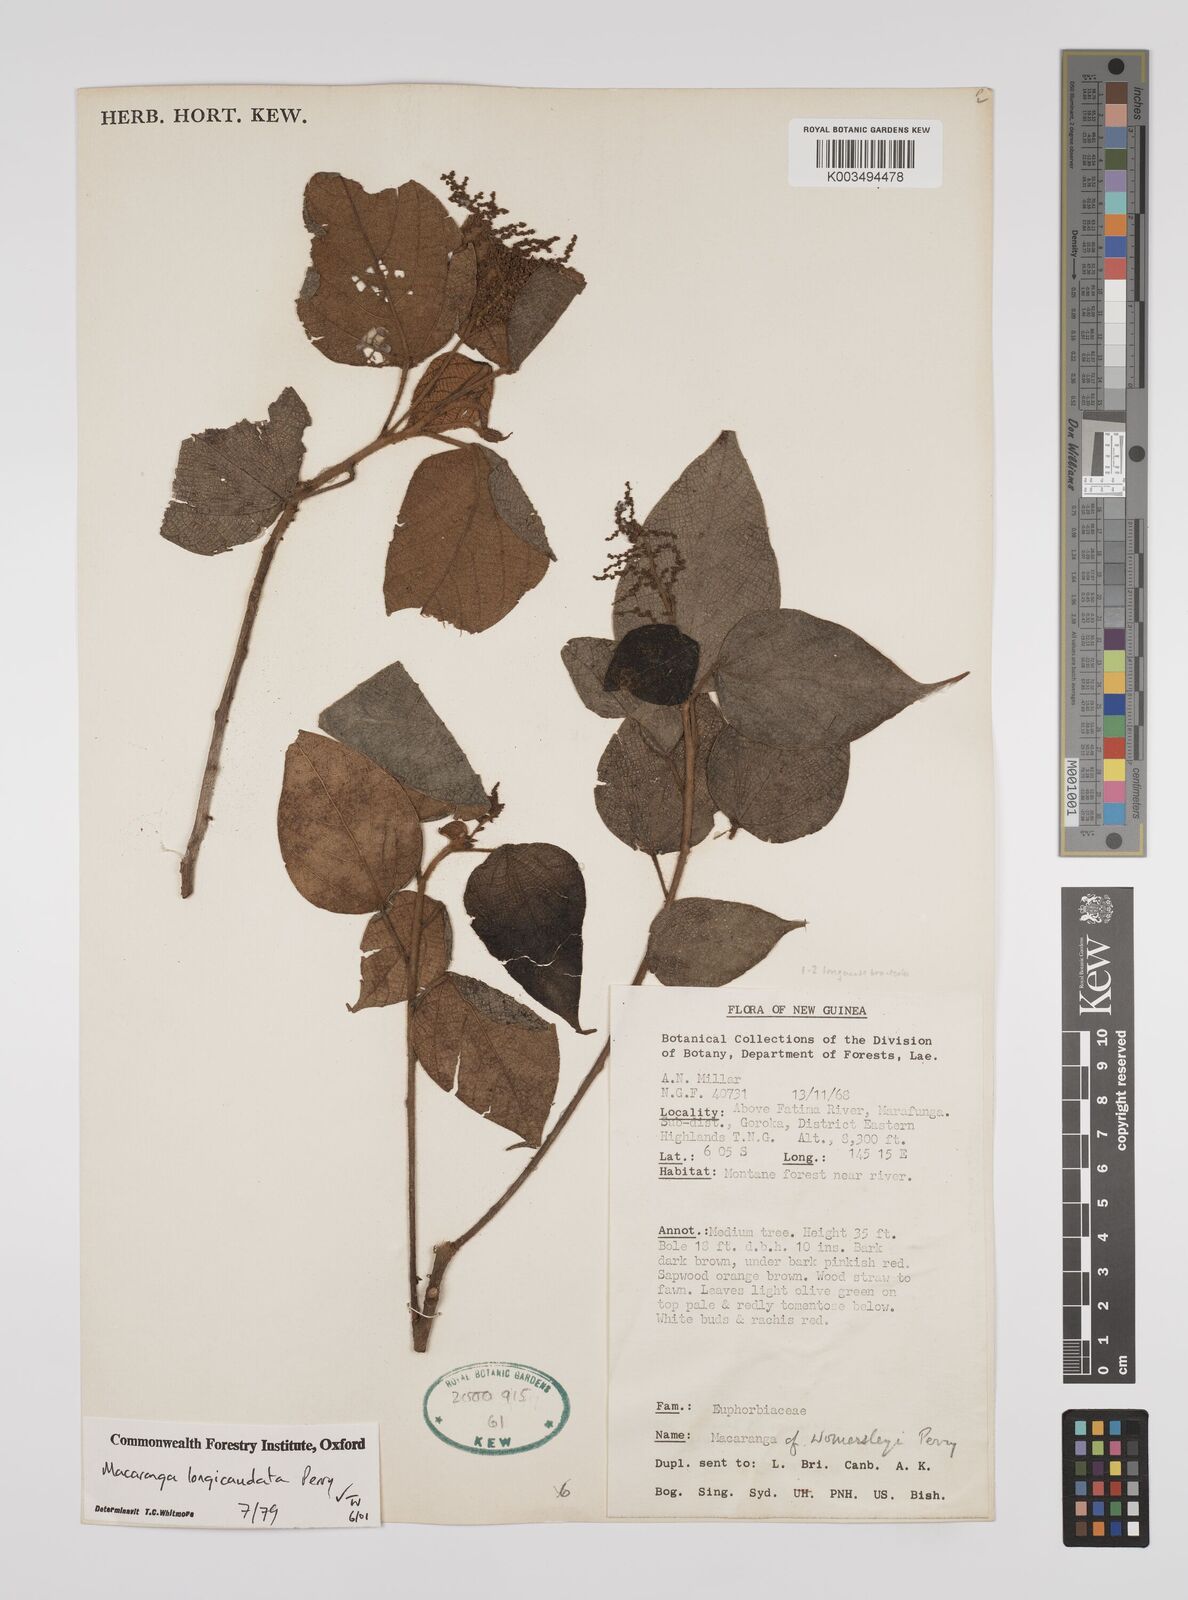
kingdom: Plantae
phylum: Tracheophyta
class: Magnoliopsida
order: Malpighiales
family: Euphorbiaceae
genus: Macaranga
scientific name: Macaranga longicaudata
